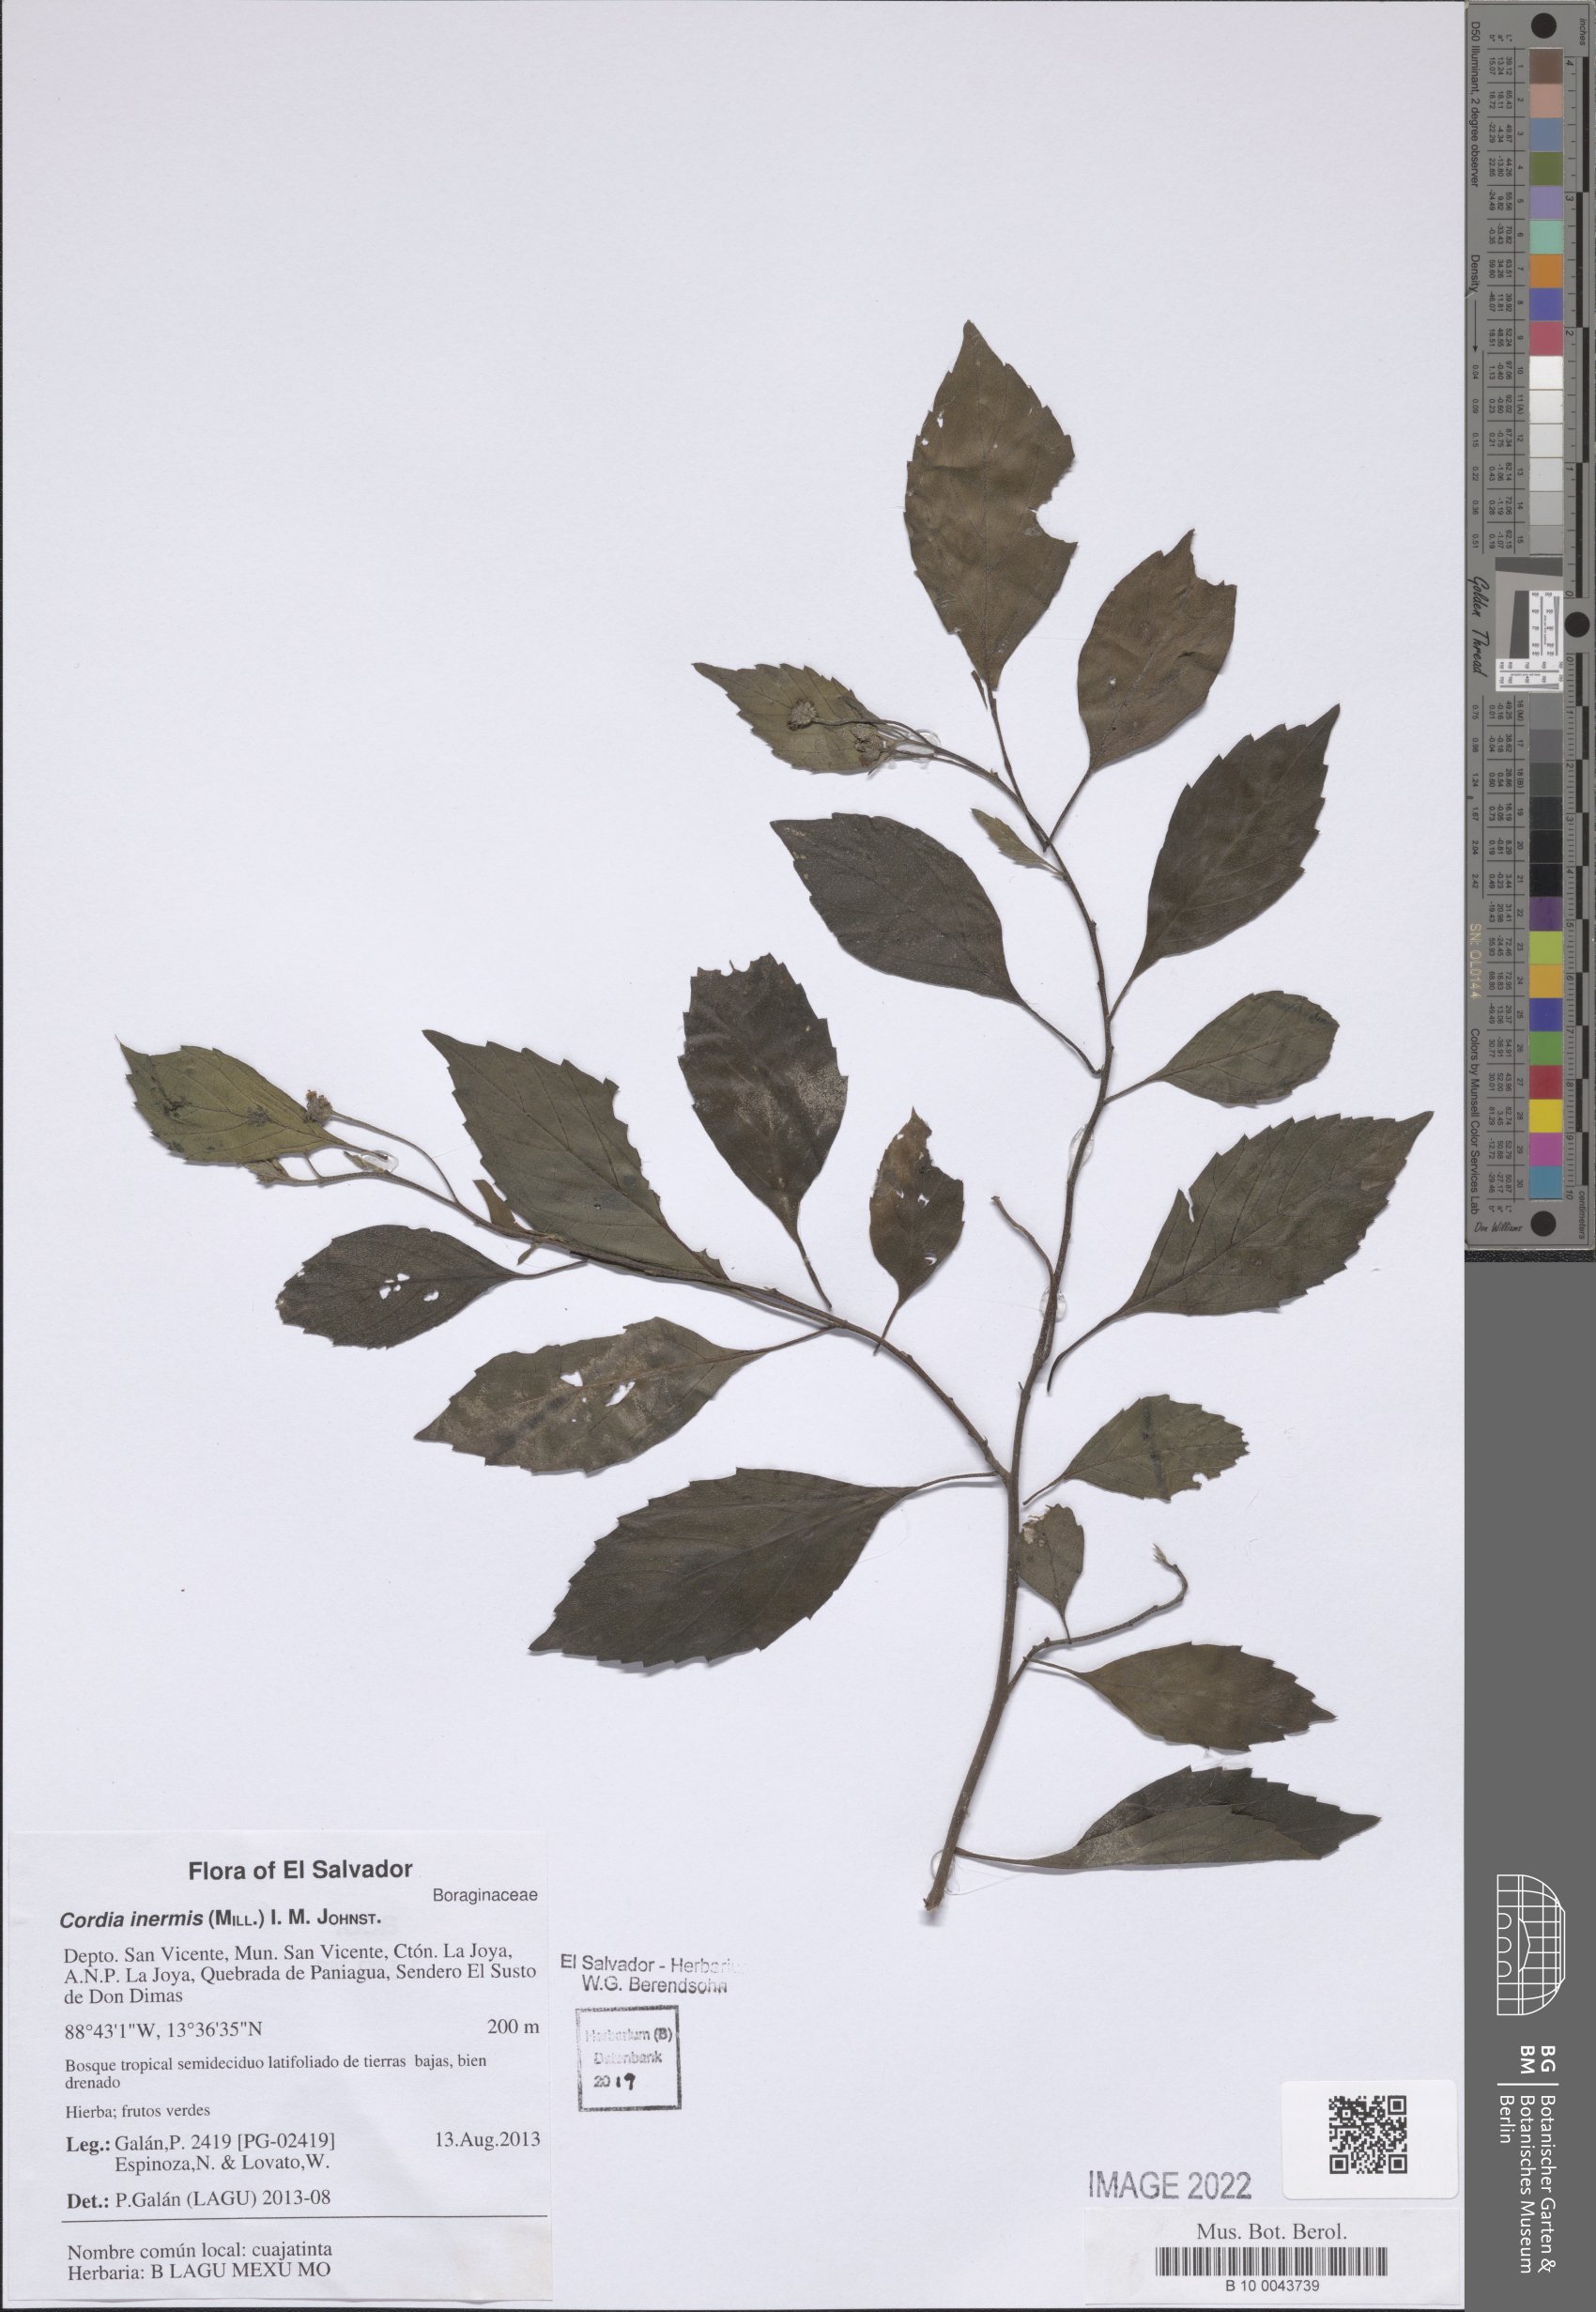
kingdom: Plantae
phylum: Tracheophyta
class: Magnoliopsida
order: Boraginales
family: Cordiaceae
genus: Varronia
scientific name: Varronia inermis
